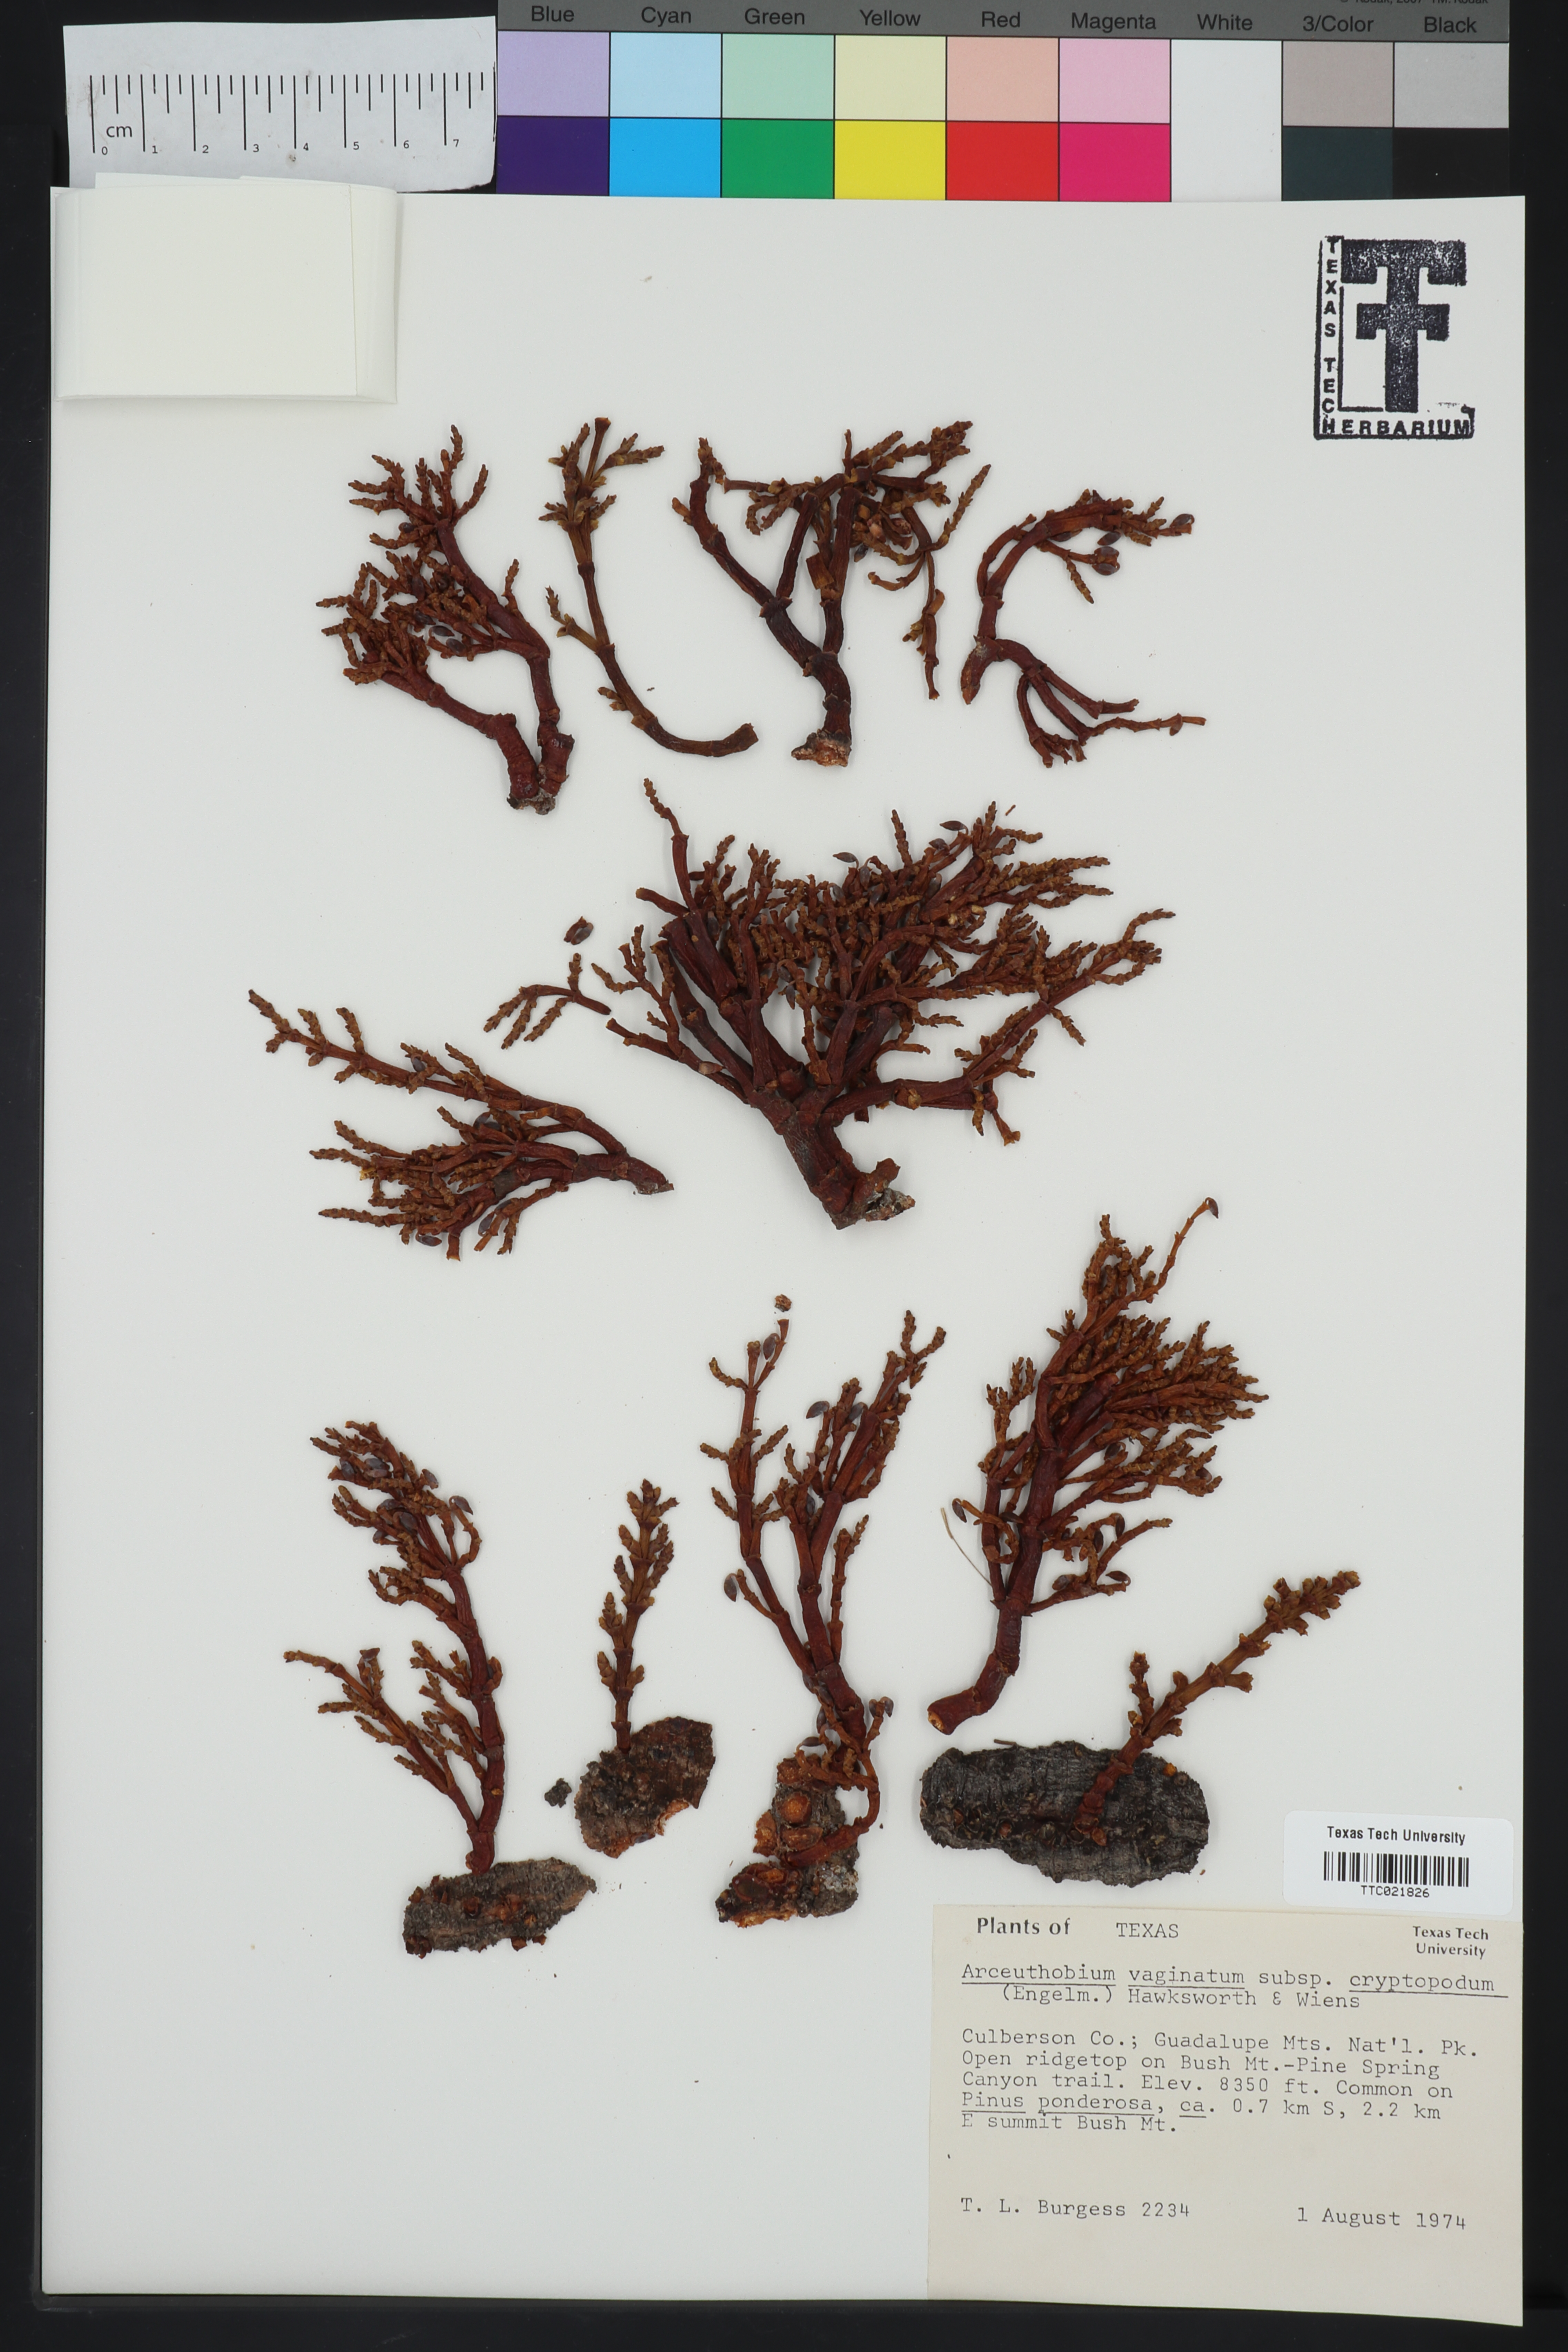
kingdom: Plantae
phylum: Tracheophyta
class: Magnoliopsida
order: Santalales
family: Viscaceae
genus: Arceuthobium
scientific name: Arceuthobium vaginatum
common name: Southwestern dwarf-mistletoe
